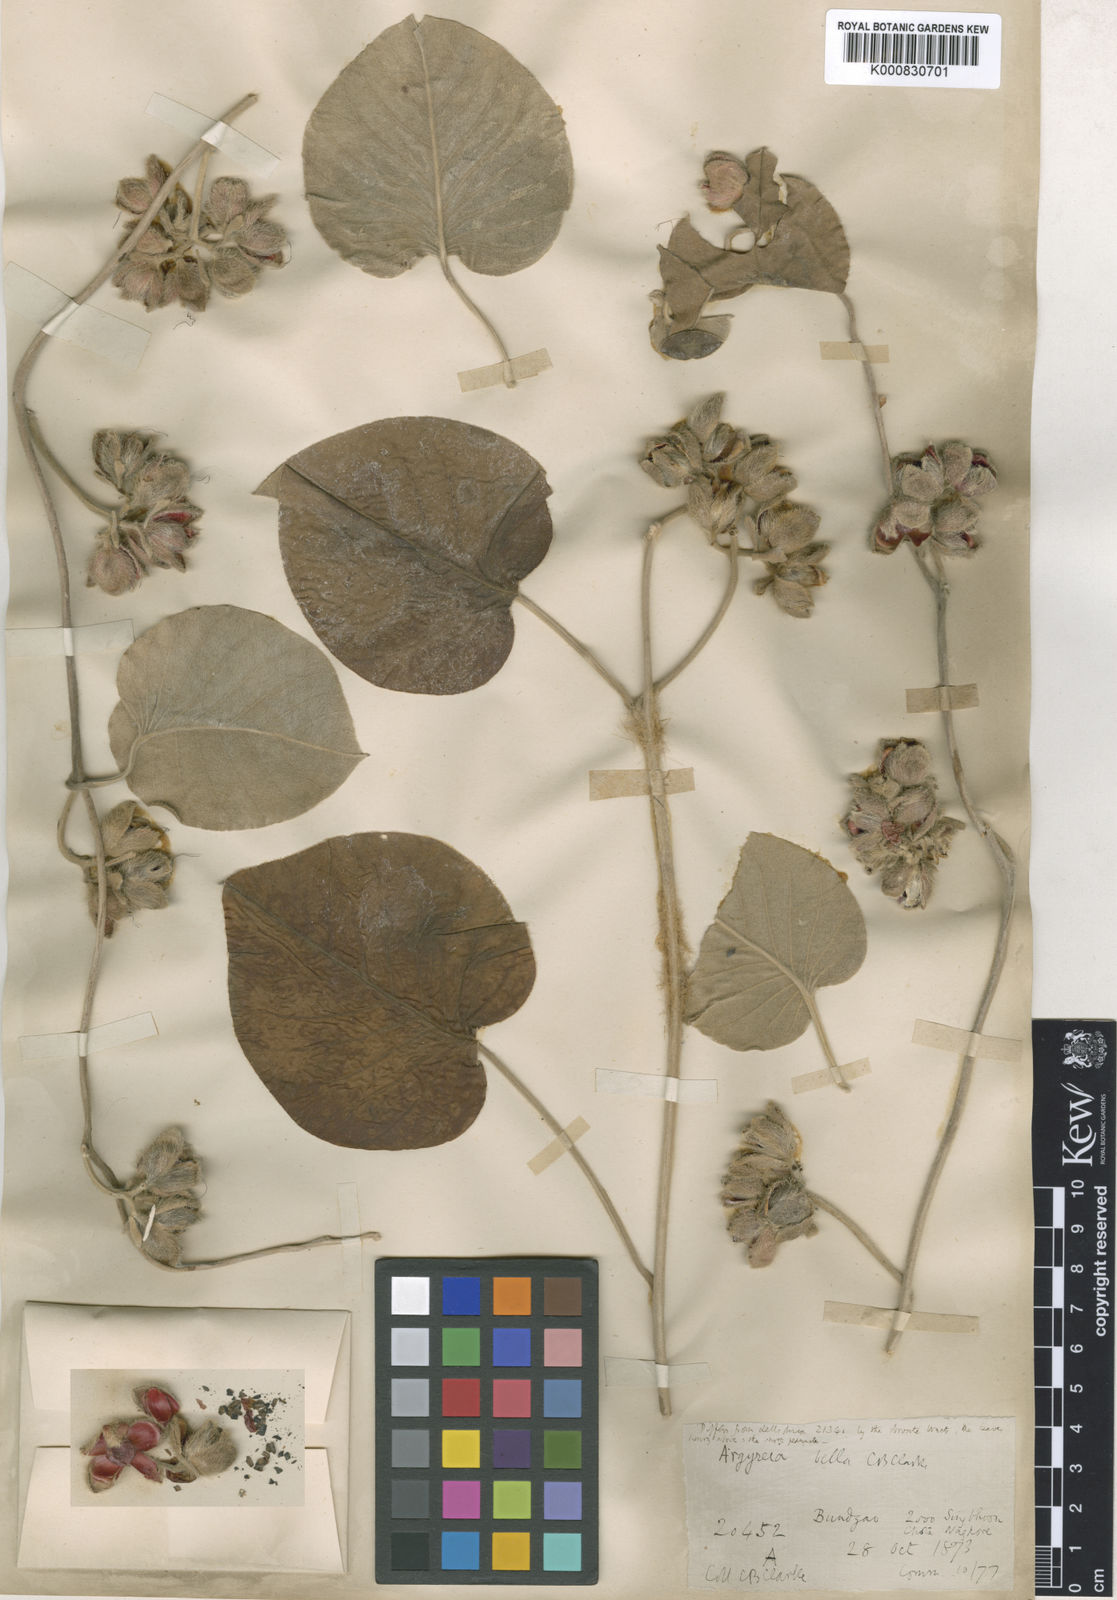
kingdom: Plantae
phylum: Tracheophyta
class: Magnoliopsida
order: Solanales
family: Convolvulaceae
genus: Argyreia
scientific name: Argyreia bella
